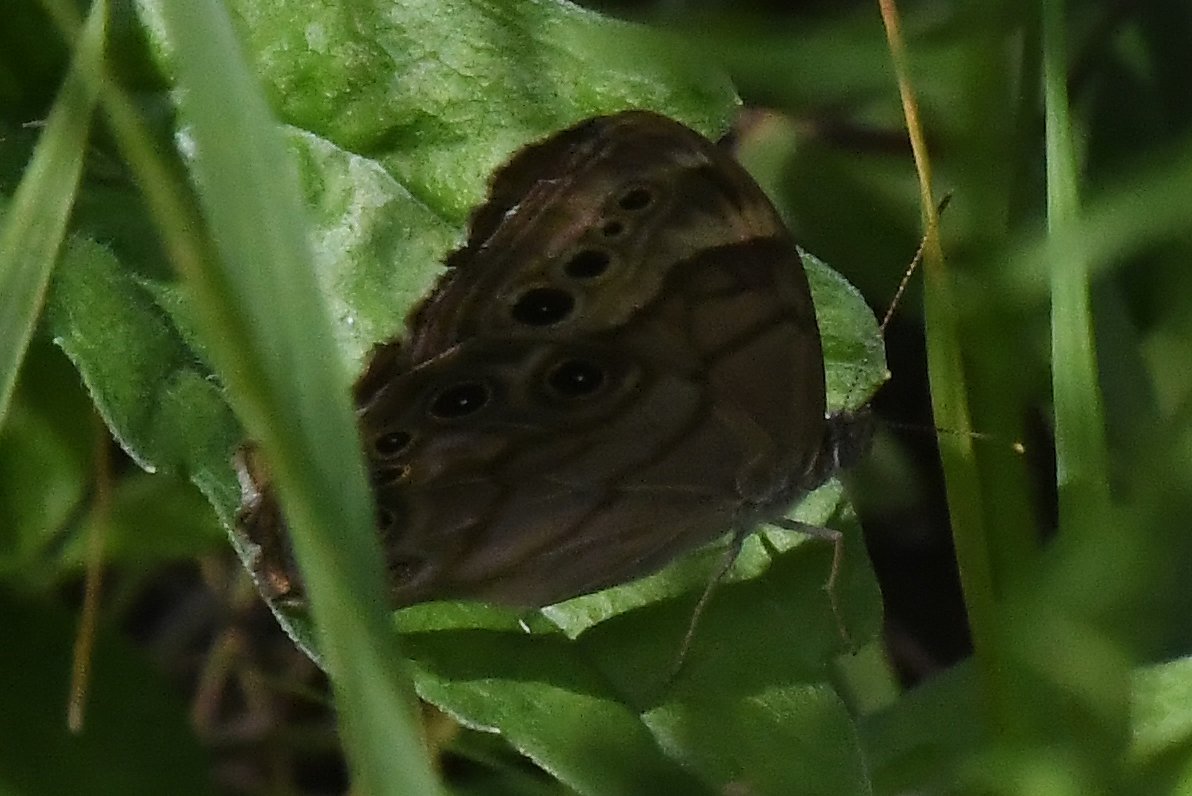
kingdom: Animalia
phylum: Arthropoda
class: Insecta
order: Lepidoptera
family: Nymphalidae
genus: Lethe
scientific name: Lethe anthedon
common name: Northern Pearly-Eye
